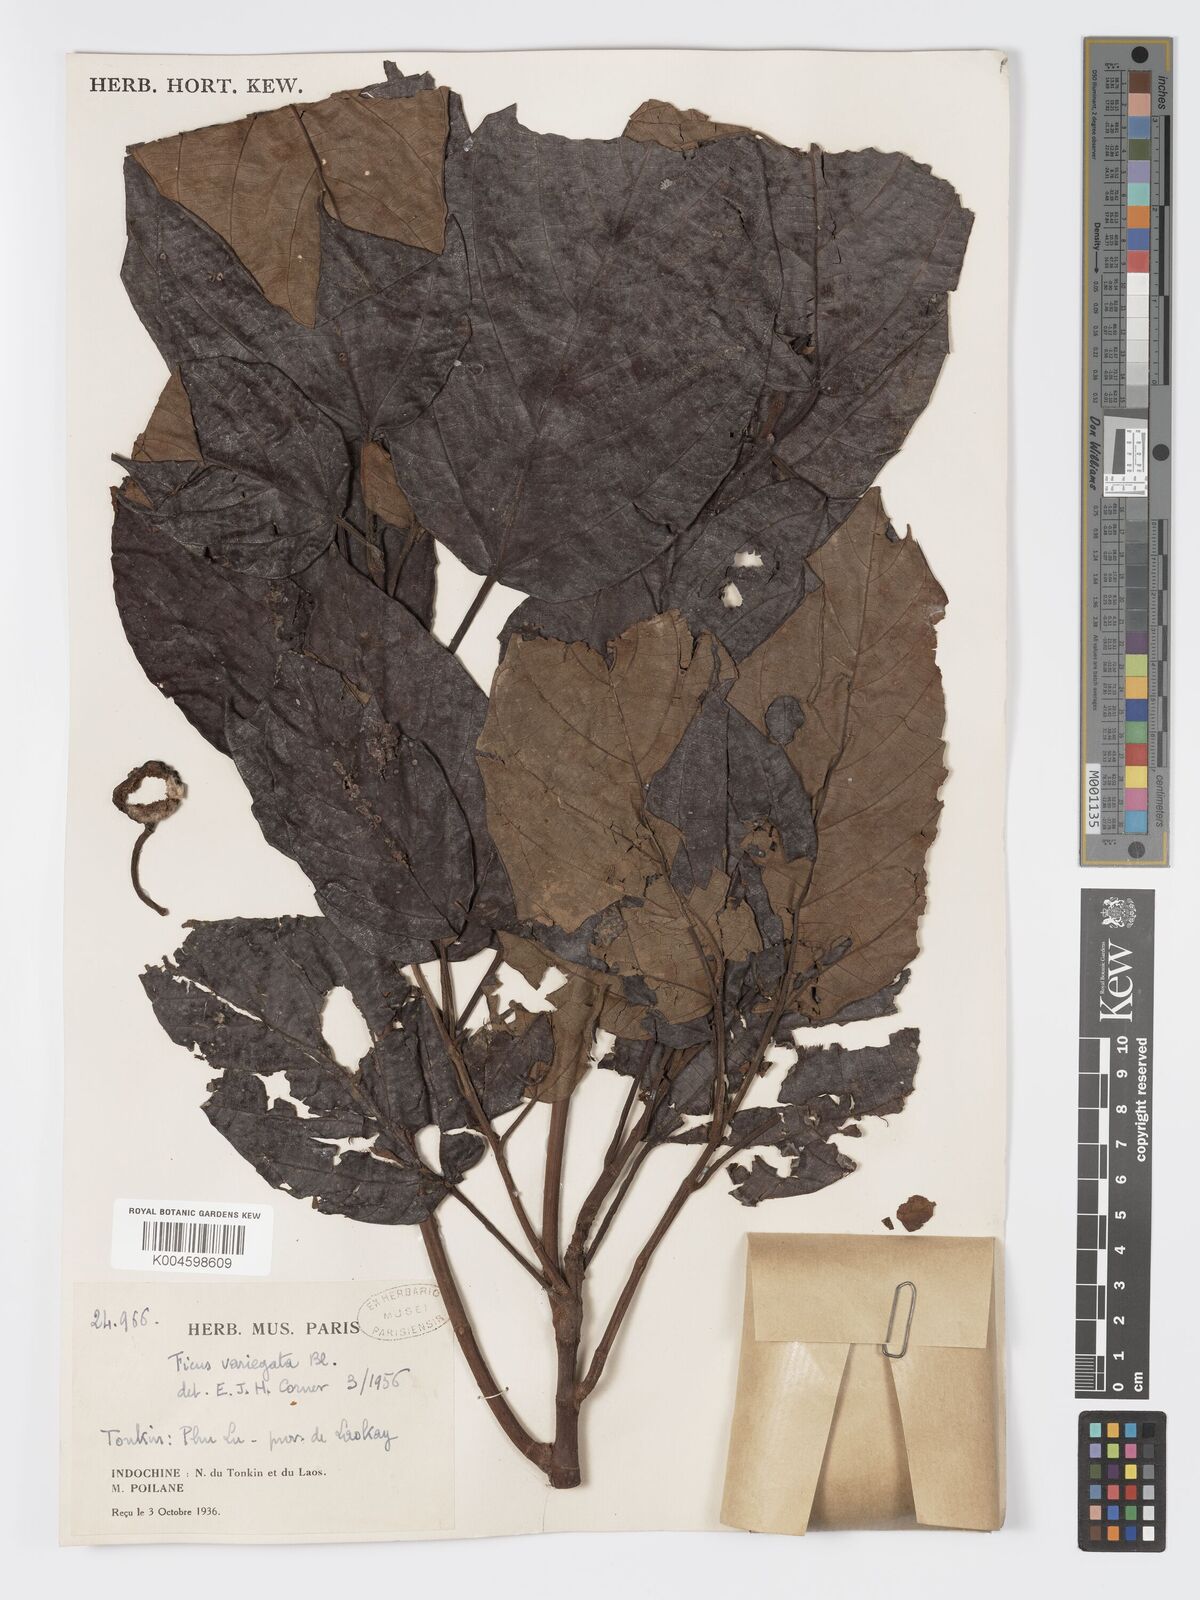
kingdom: Plantae
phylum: Tracheophyta
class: Magnoliopsida
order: Rosales
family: Moraceae
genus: Ficus
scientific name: Ficus variegata
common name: Variegated fig
